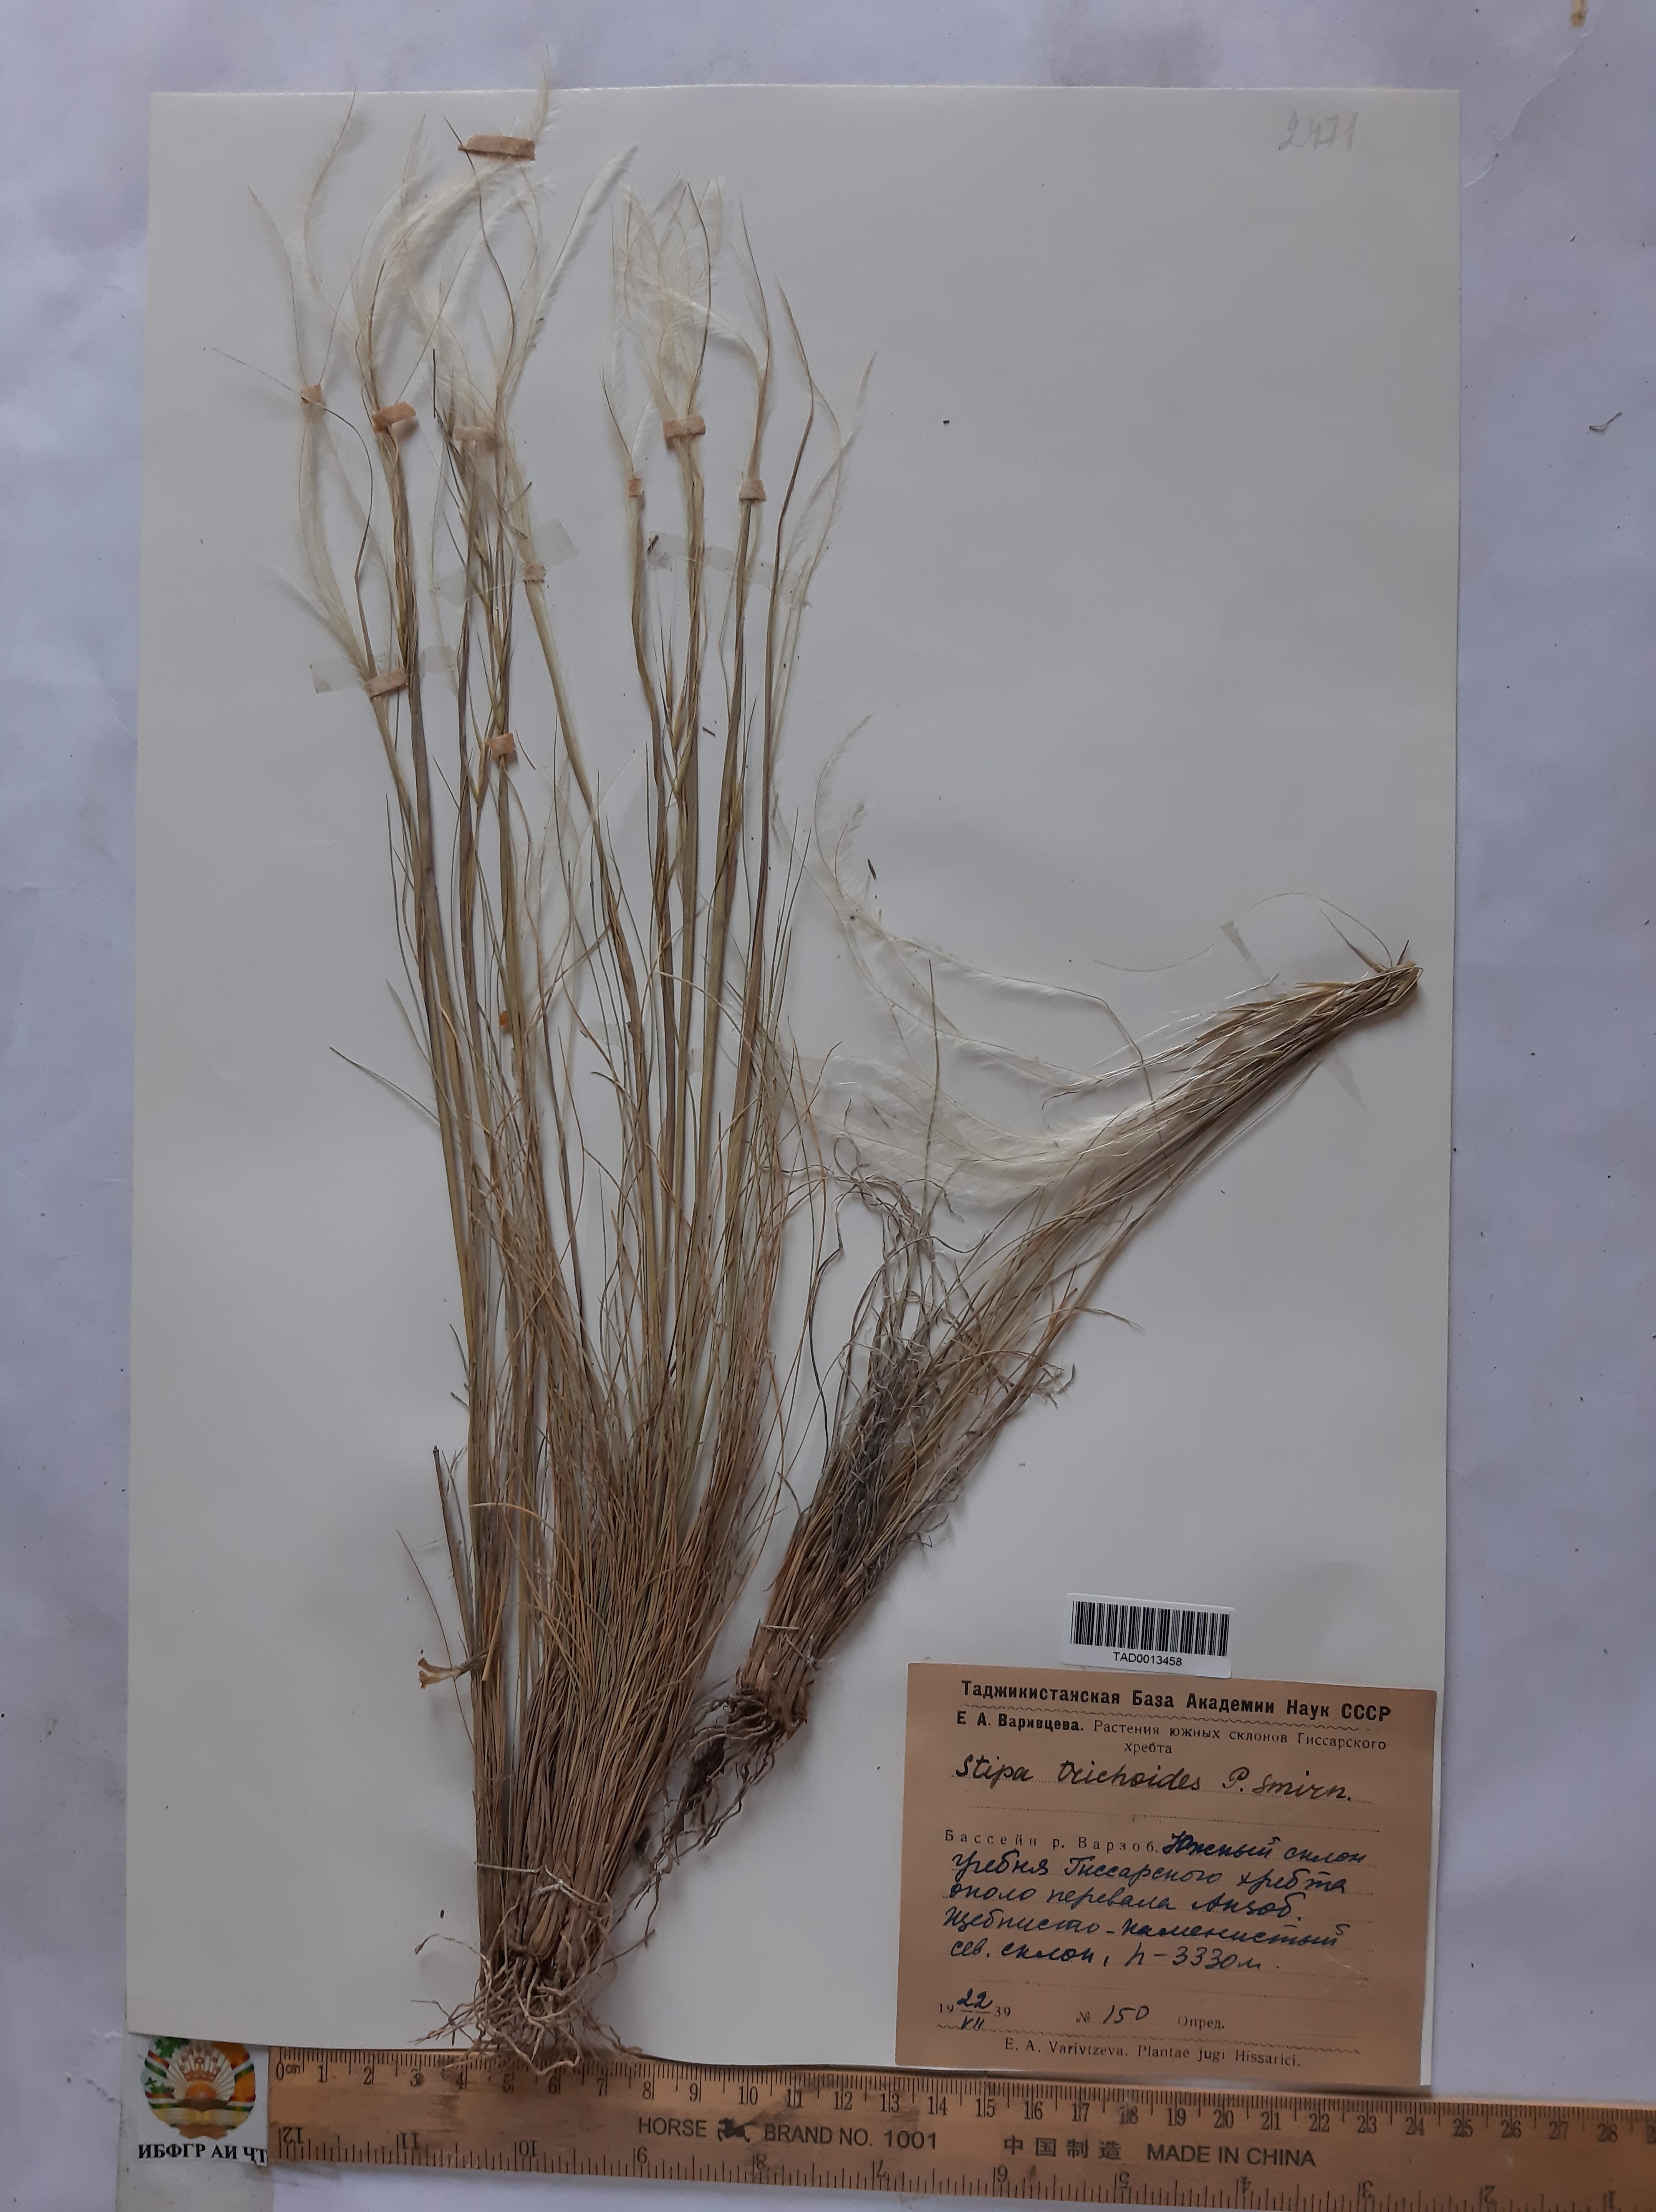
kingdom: Plantae
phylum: Tracheophyta
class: Liliopsida
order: Poales
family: Poaceae
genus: Stipa
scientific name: Stipa trichoides
